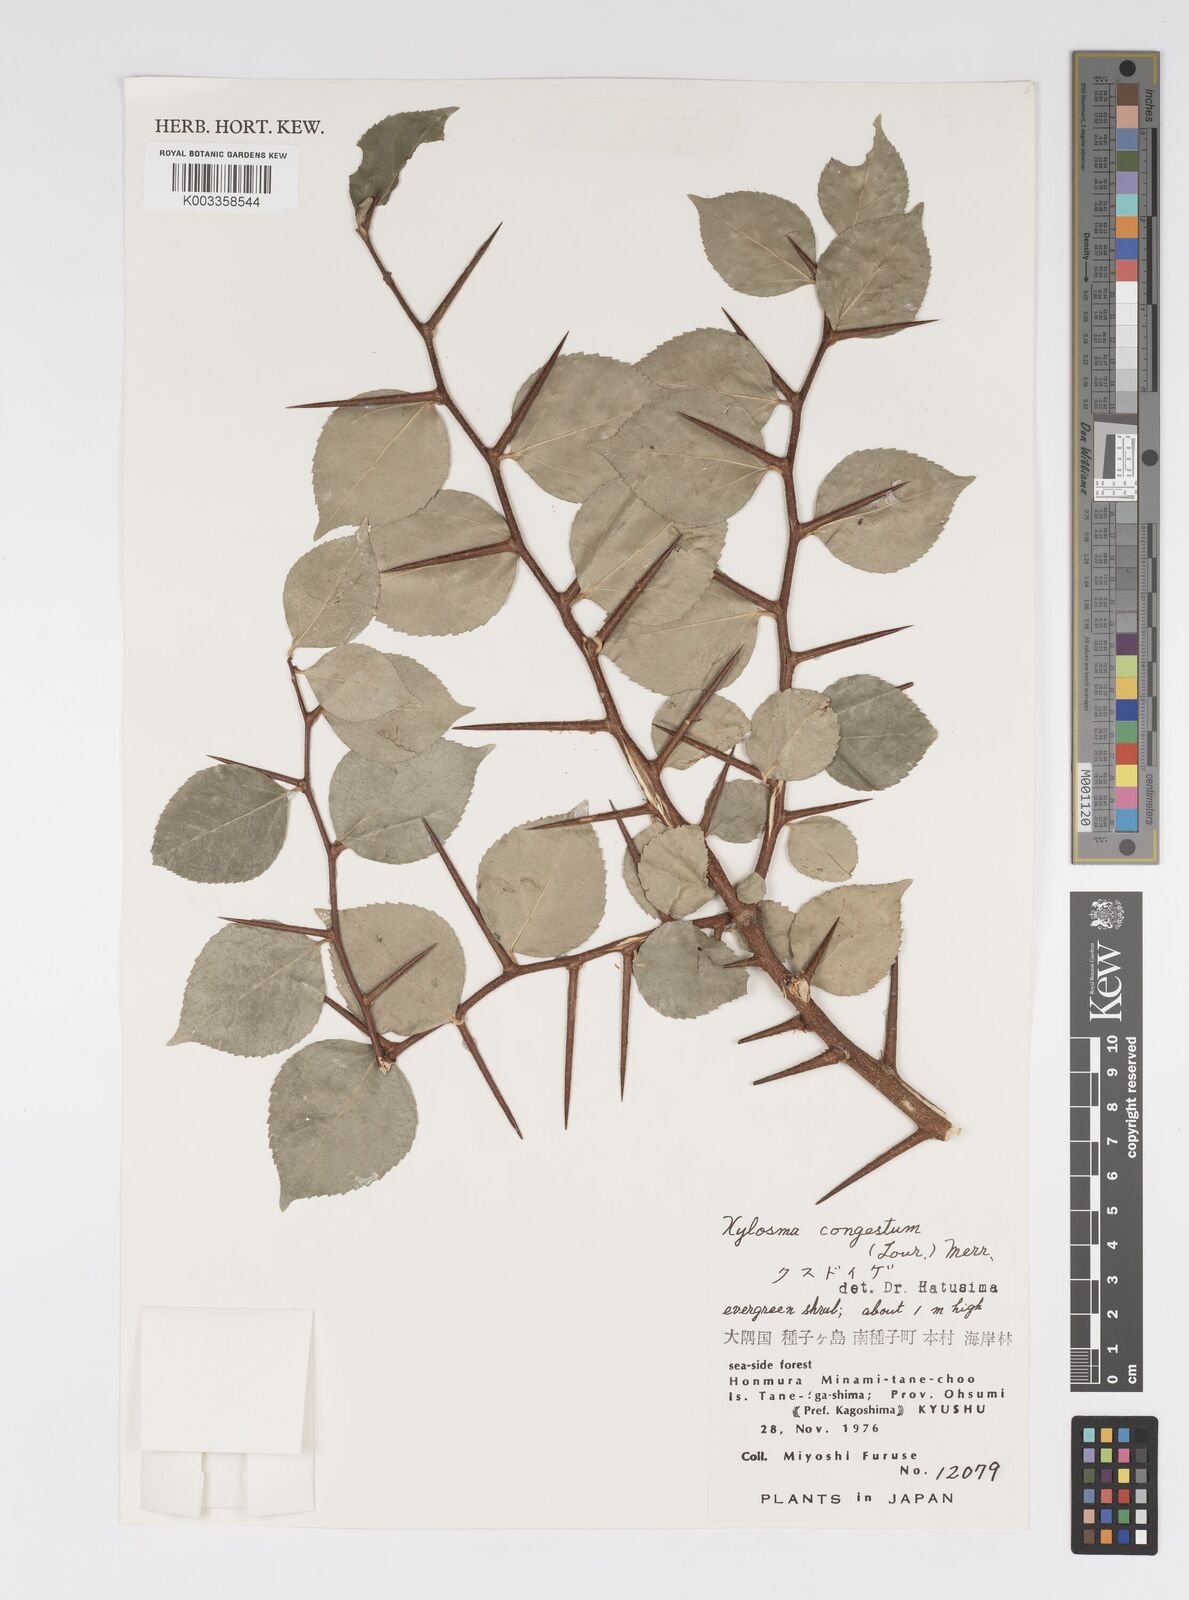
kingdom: Plantae
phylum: Tracheophyta
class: Magnoliopsida
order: Malpighiales
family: Salicaceae
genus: Xylosma
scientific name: Xylosma racemosum
